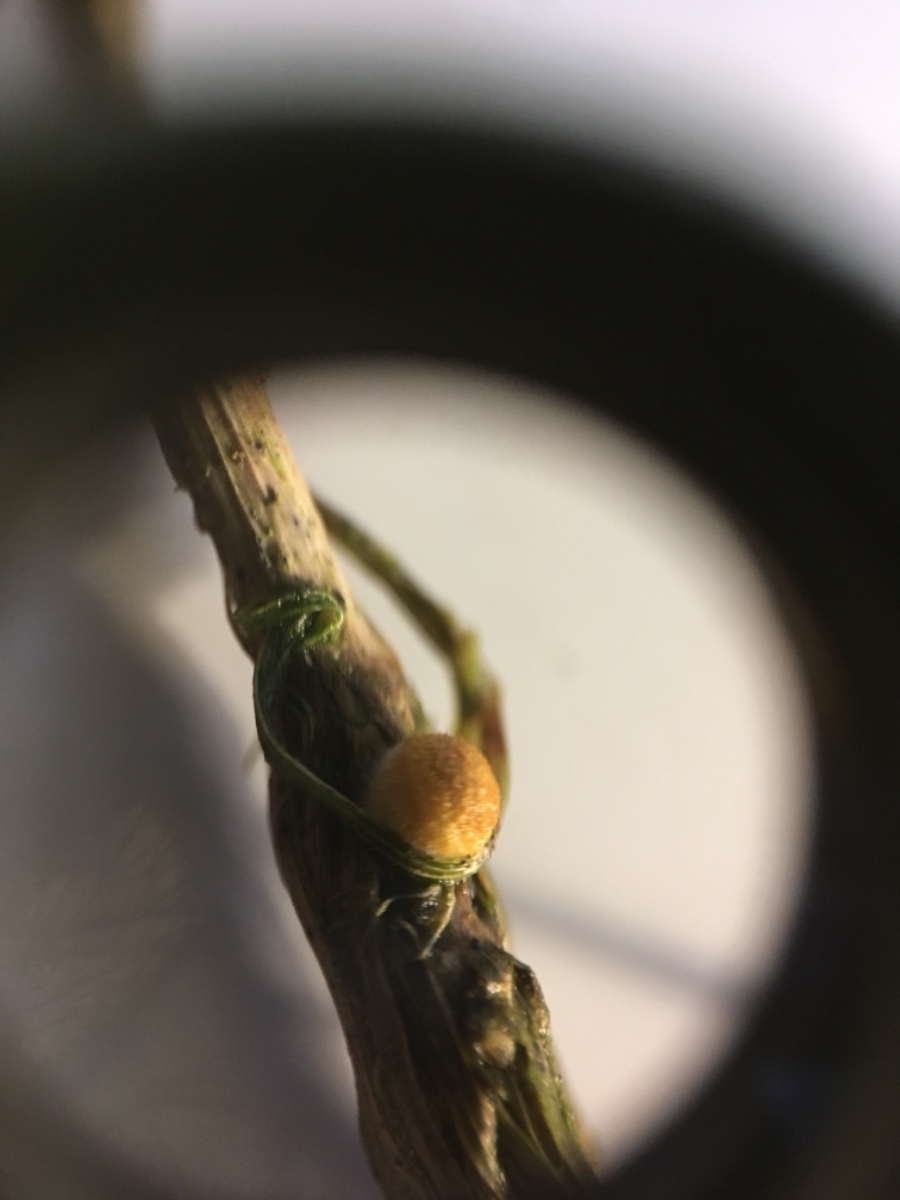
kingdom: Fungi
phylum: Basidiomycota
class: Agaricomycetes
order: Agaricales
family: Nidulariaceae
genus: Crucibulum
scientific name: Crucibulum crucibuliforme
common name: krukkesvamp
